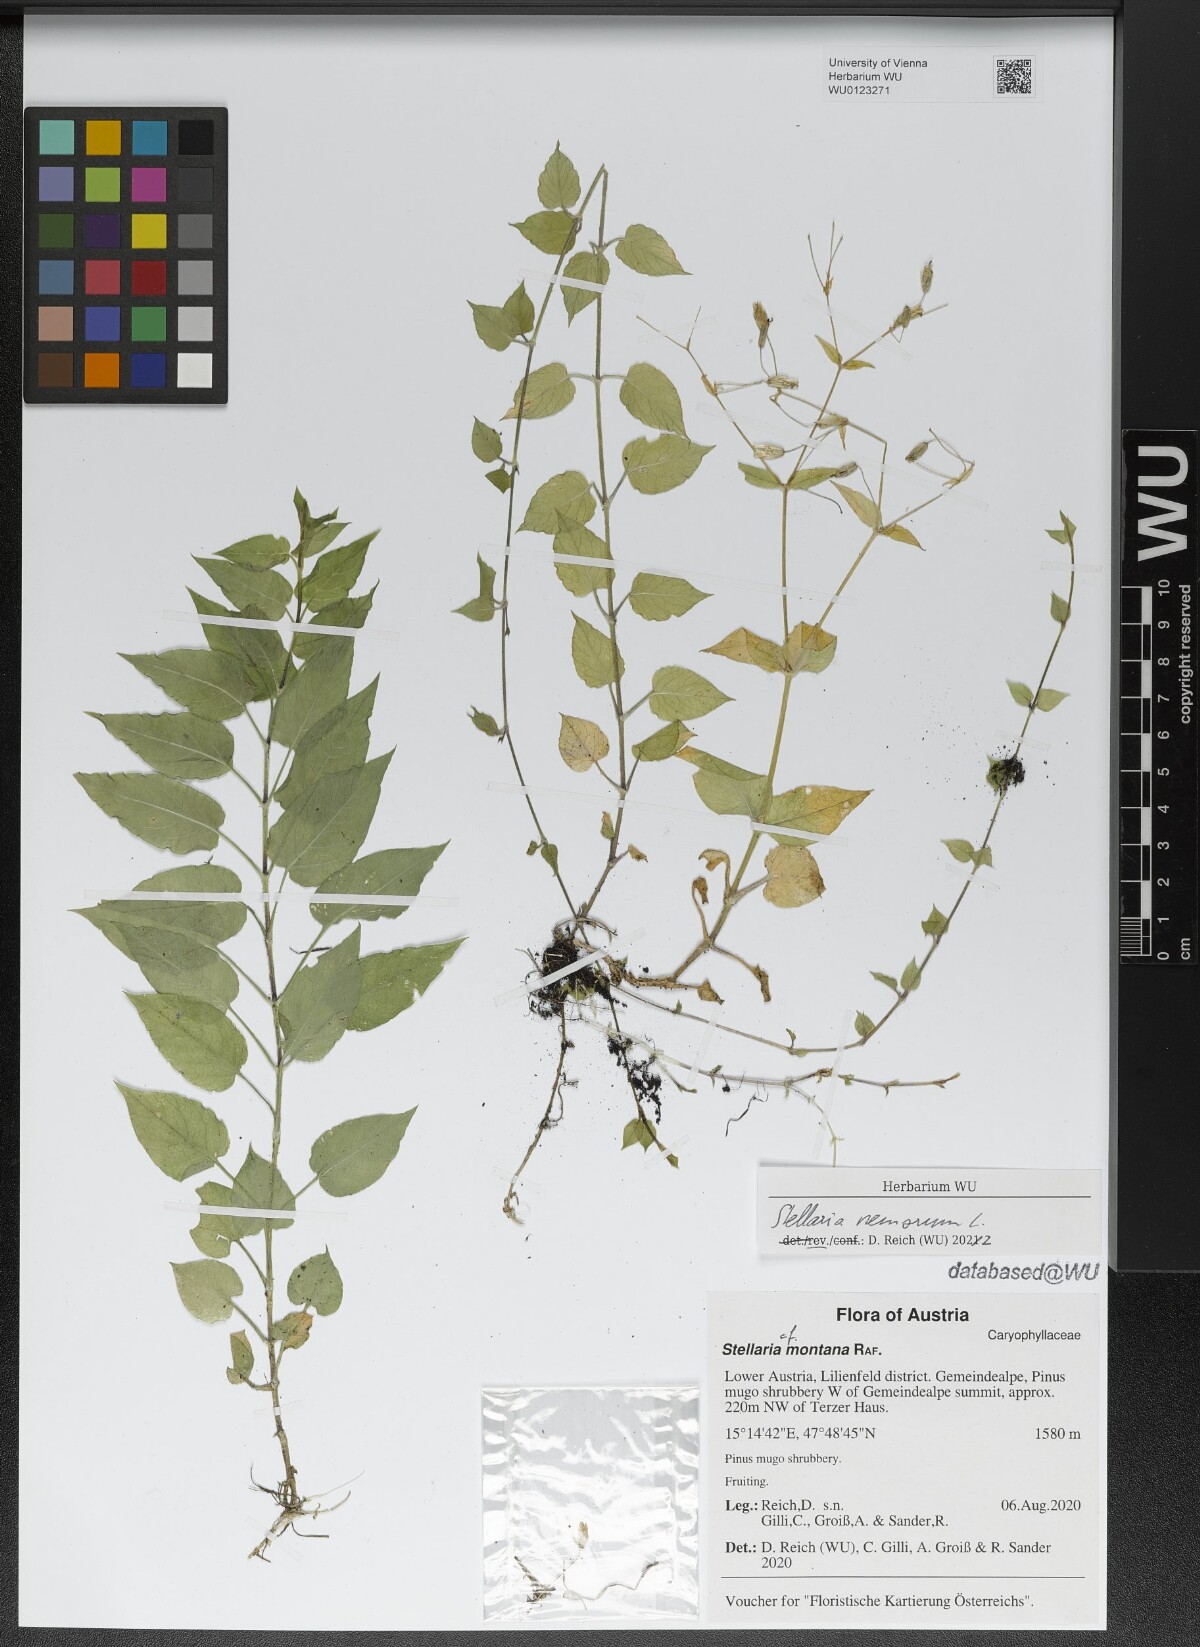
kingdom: Plantae
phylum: Tracheophyta
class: Magnoliopsida
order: Caryophyllales
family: Caryophyllaceae
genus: Stellaria
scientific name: Stellaria nemorum
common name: Wood stitchwort
